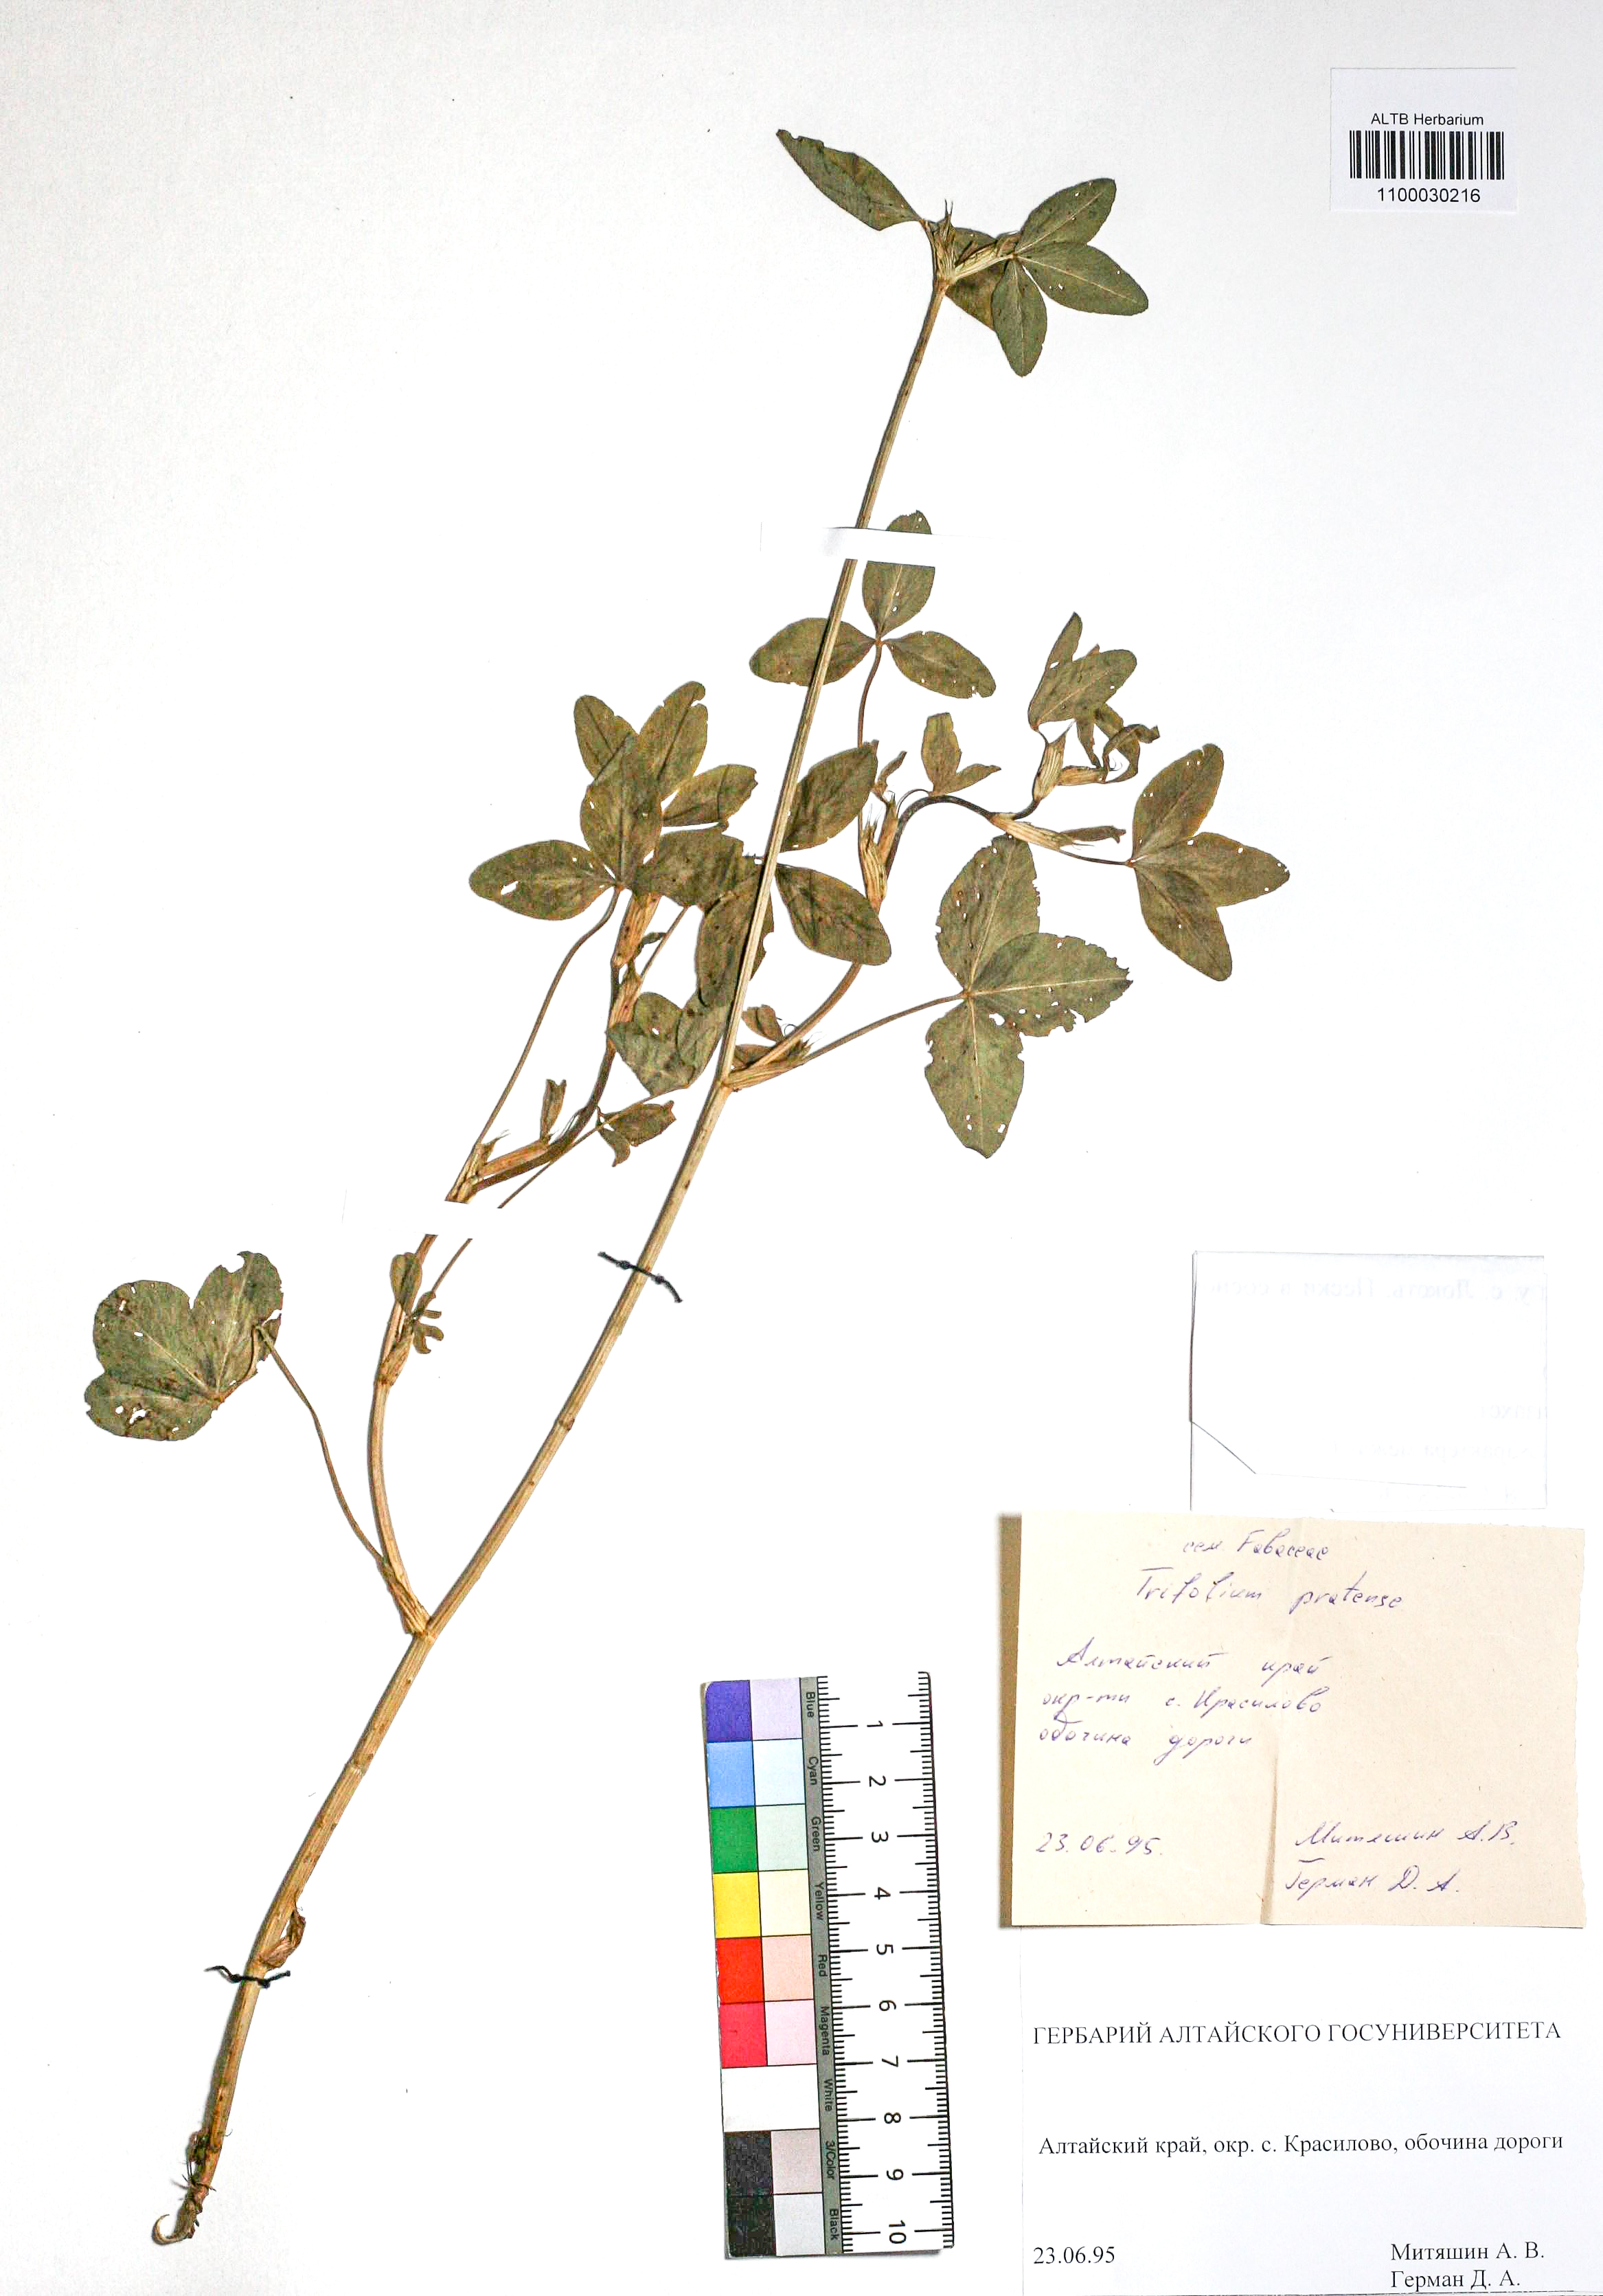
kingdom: Plantae
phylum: Tracheophyta
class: Magnoliopsida
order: Fabales
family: Fabaceae
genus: Trifolium
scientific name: Trifolium pratense
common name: Red clover
